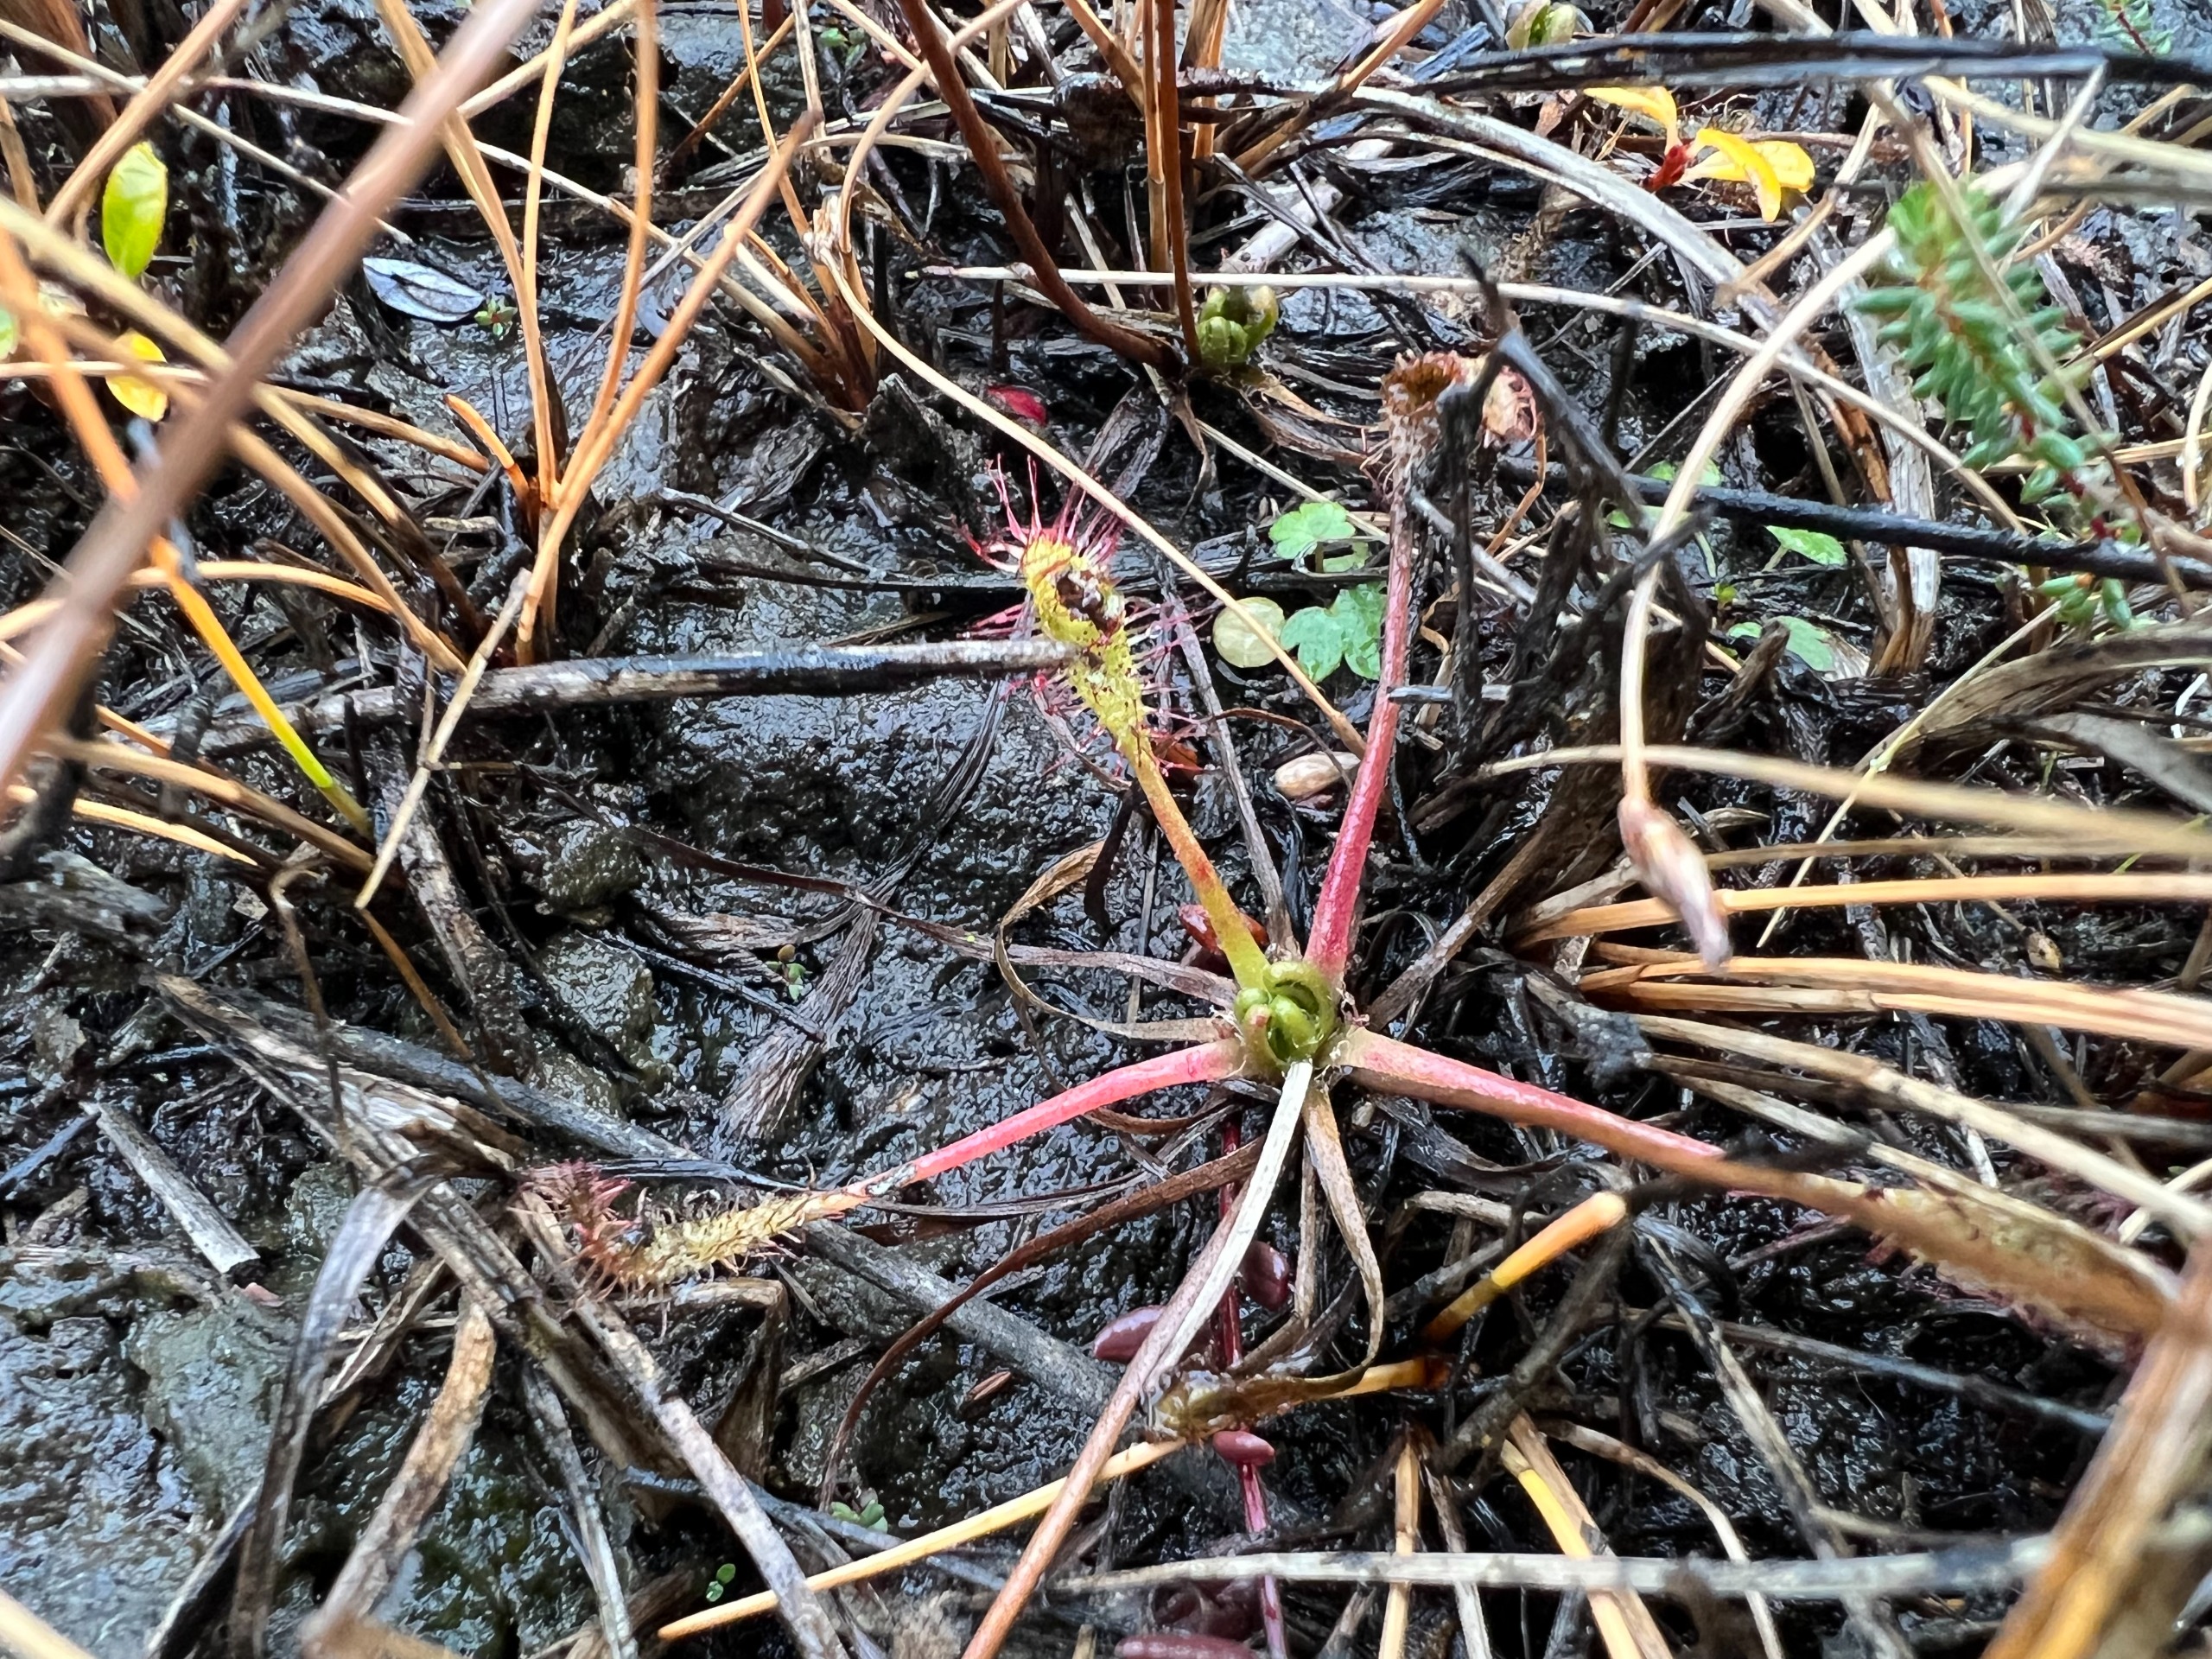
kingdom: Plantae
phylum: Tracheophyta
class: Magnoliopsida
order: Caryophyllales
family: Droseraceae
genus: Drosera
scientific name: Drosera anglica
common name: Langbladet soldug
